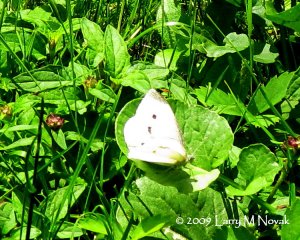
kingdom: Animalia
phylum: Arthropoda
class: Insecta
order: Lepidoptera
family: Pieridae
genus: Pieris
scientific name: Pieris rapae
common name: Cabbage White
